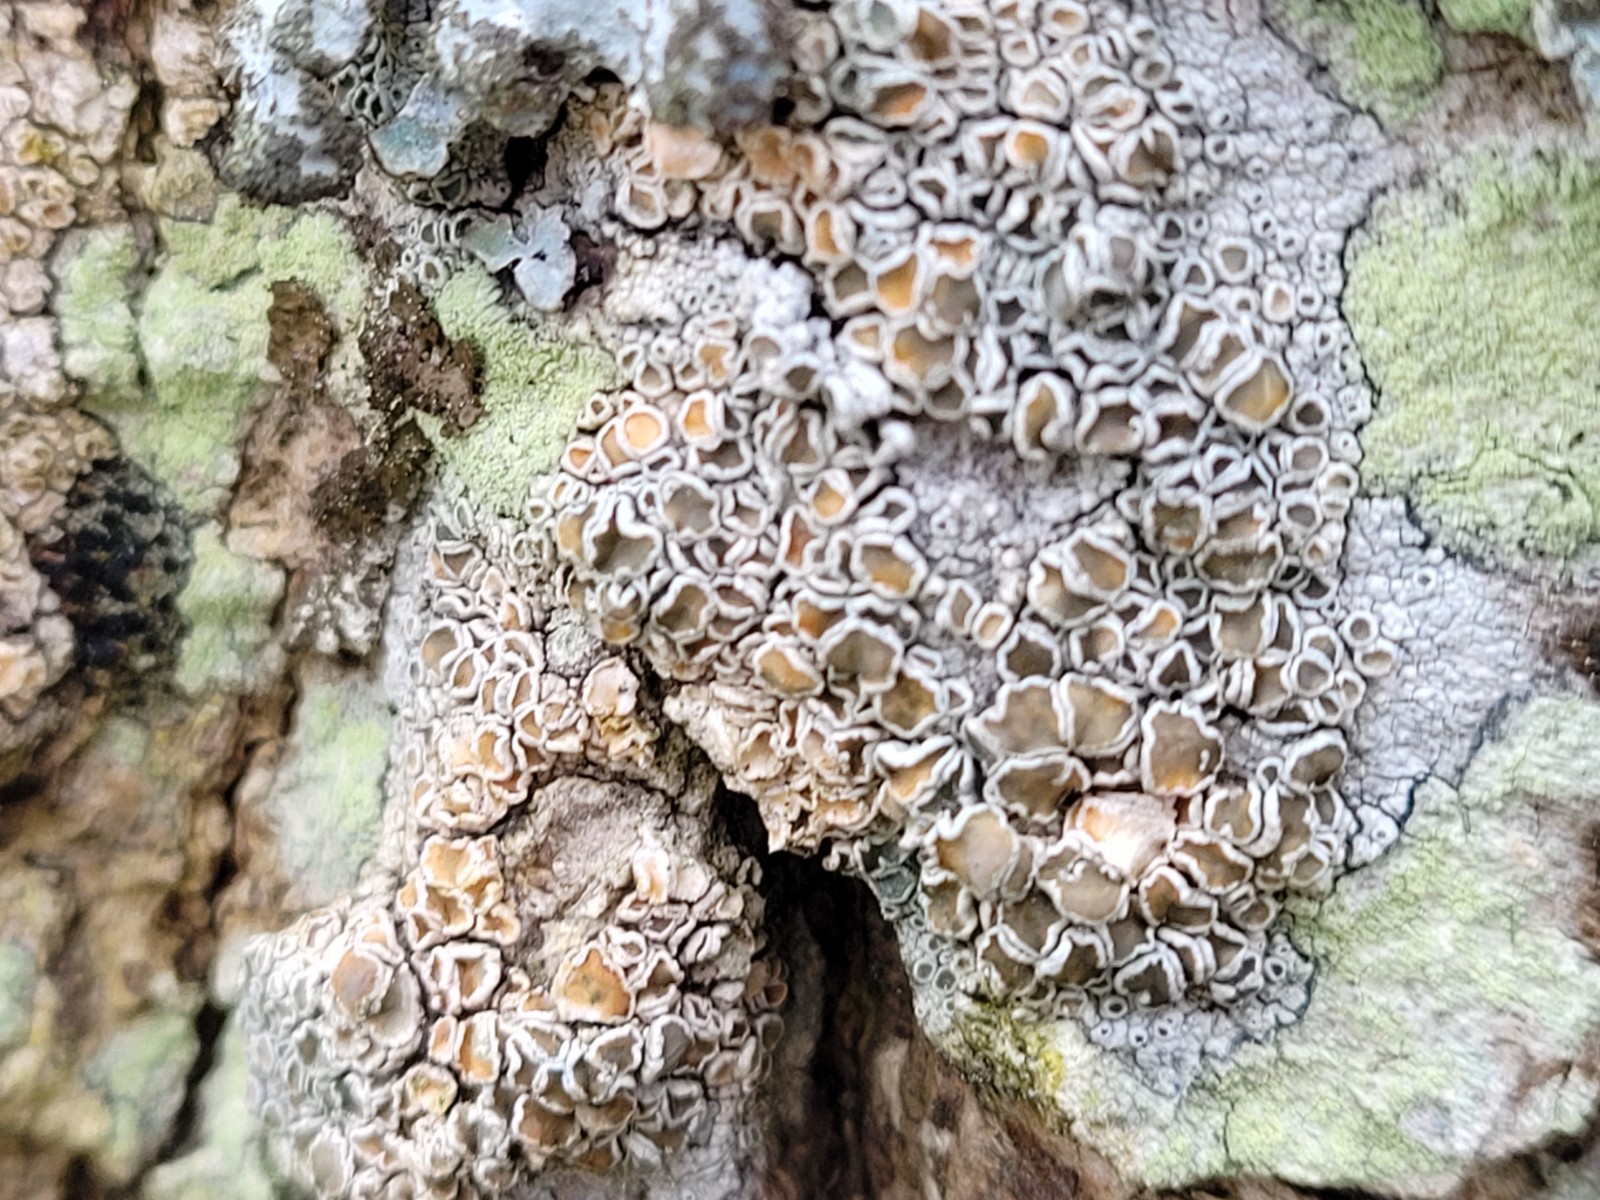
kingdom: Fungi
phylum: Ascomycota
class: Lecanoromycetes
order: Lecanorales
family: Lecanoraceae
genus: Lecanora
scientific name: Lecanora chlarotera
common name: brun kantskivelav
